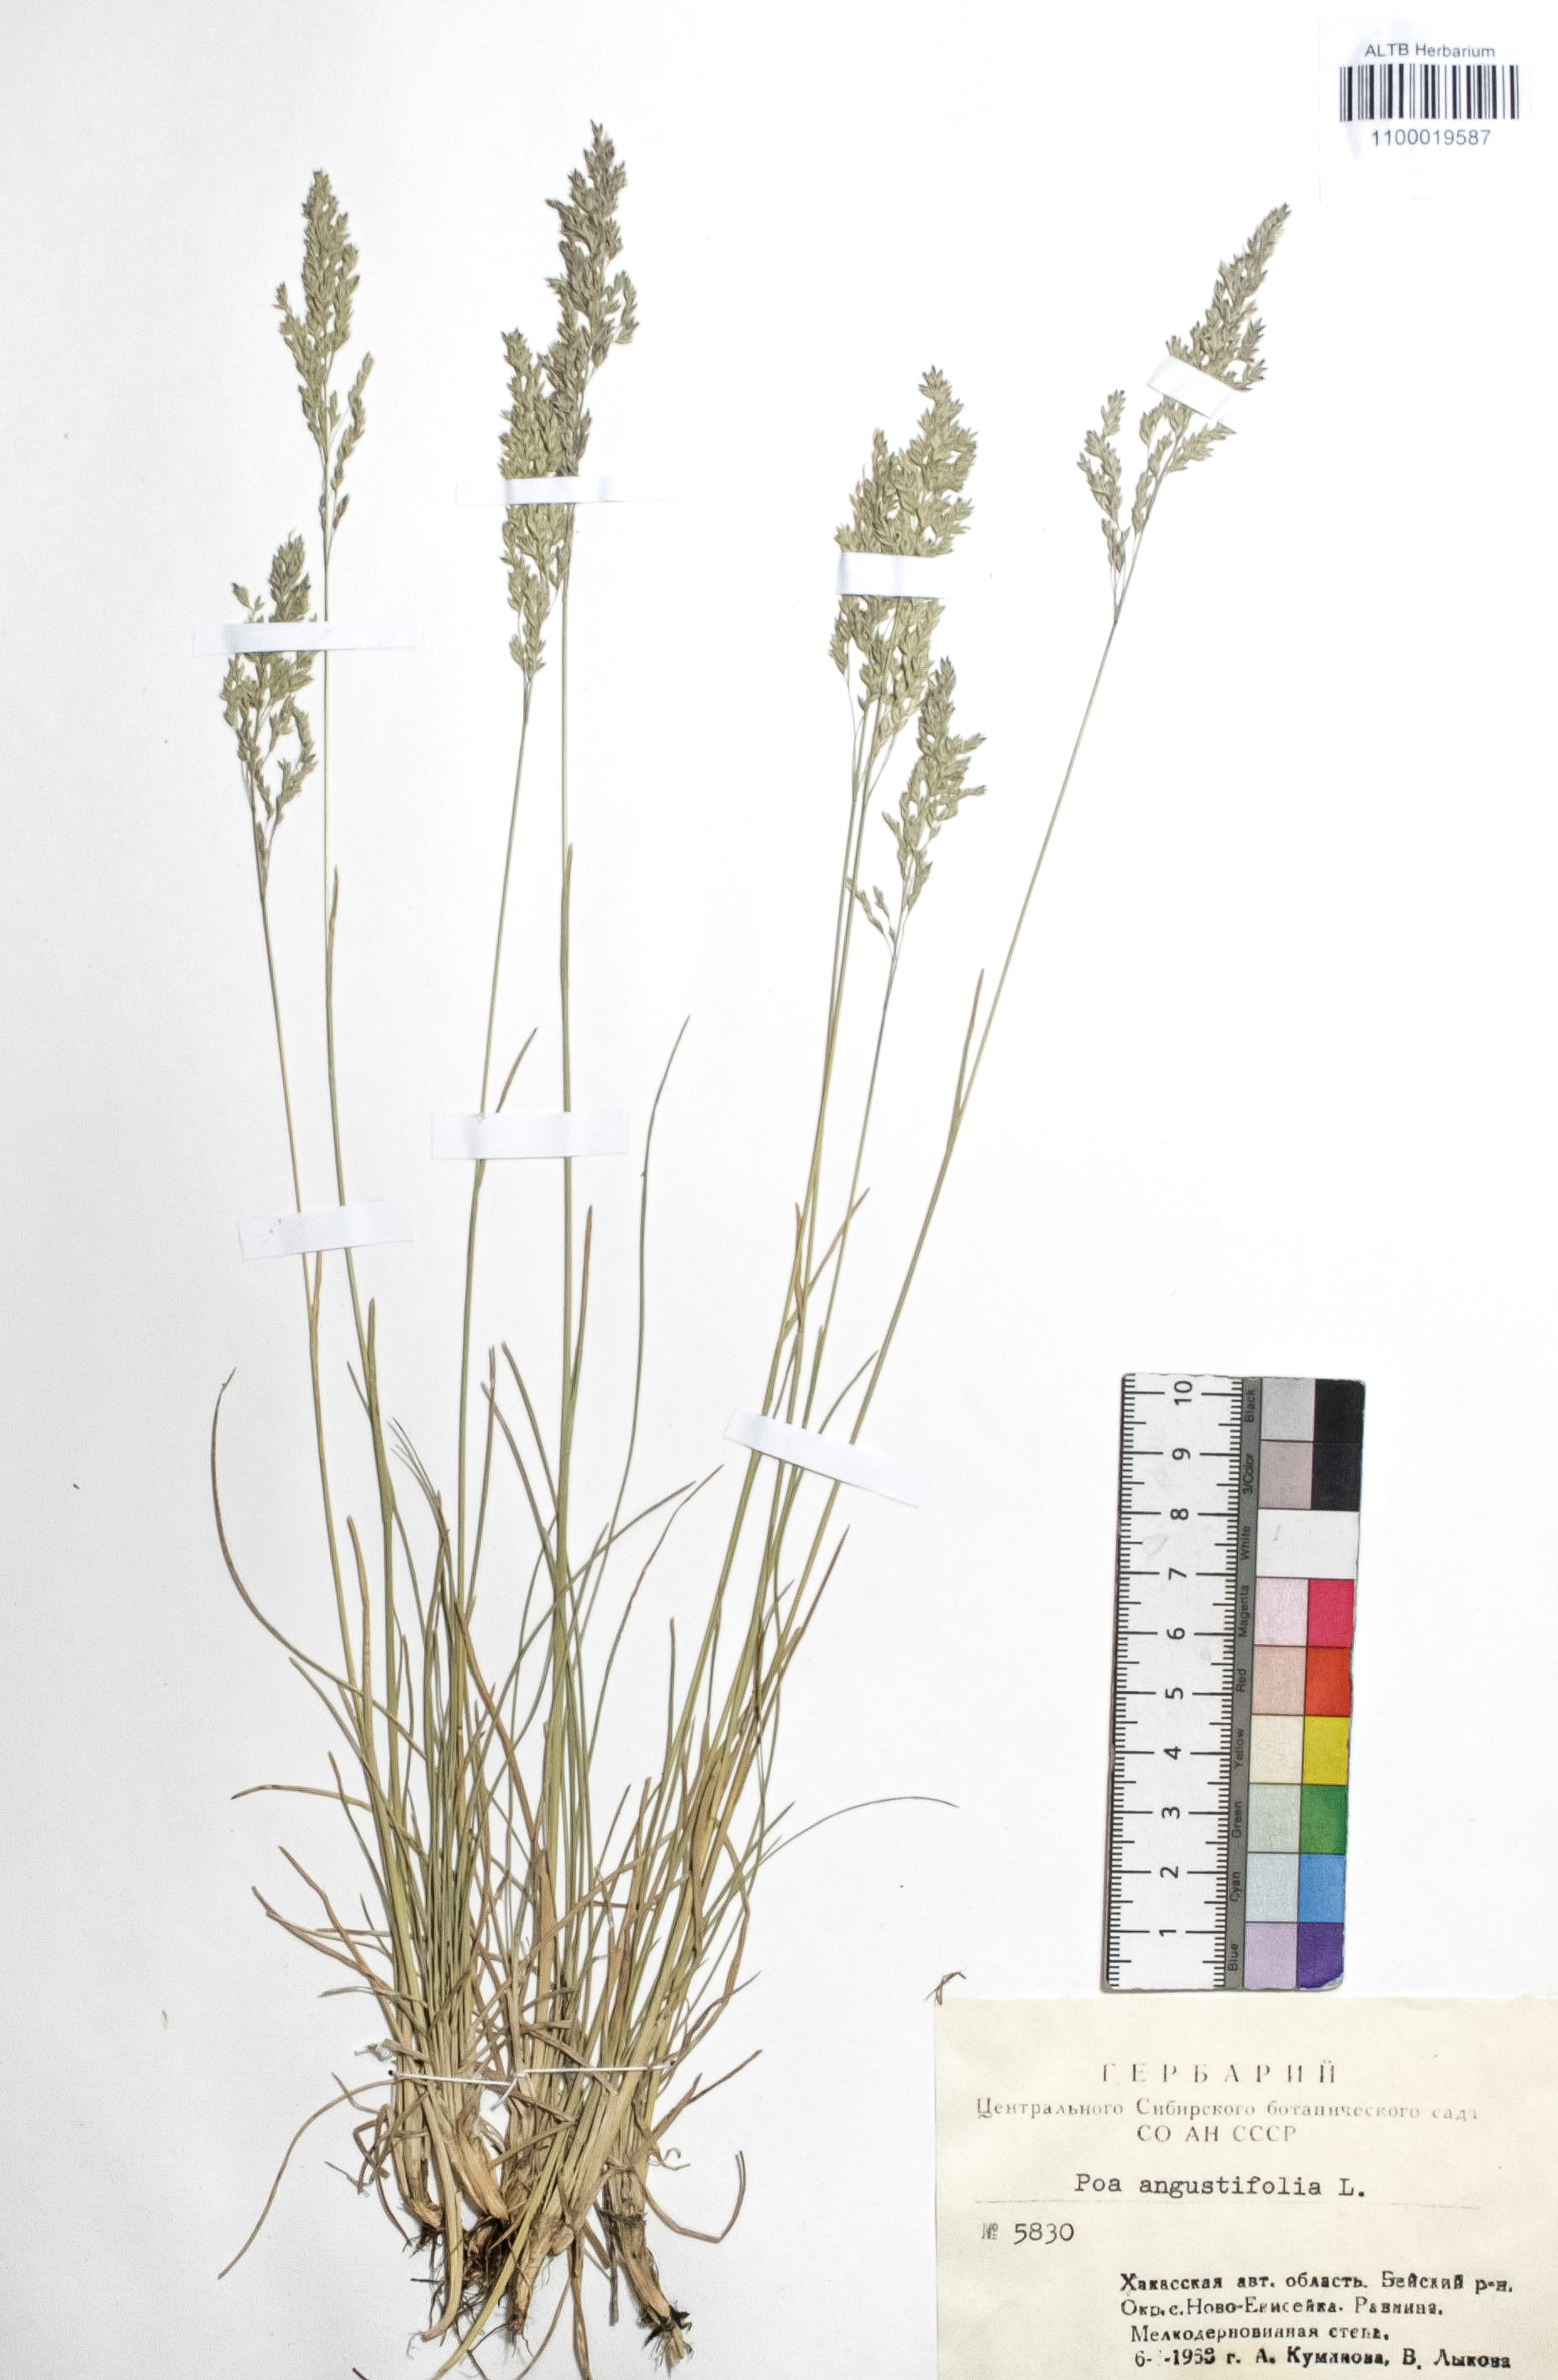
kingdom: Plantae
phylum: Tracheophyta
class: Liliopsida
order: Poales
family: Poaceae
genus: Poa
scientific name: Poa angustifolia
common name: Narrow-leaved meadow-grass
